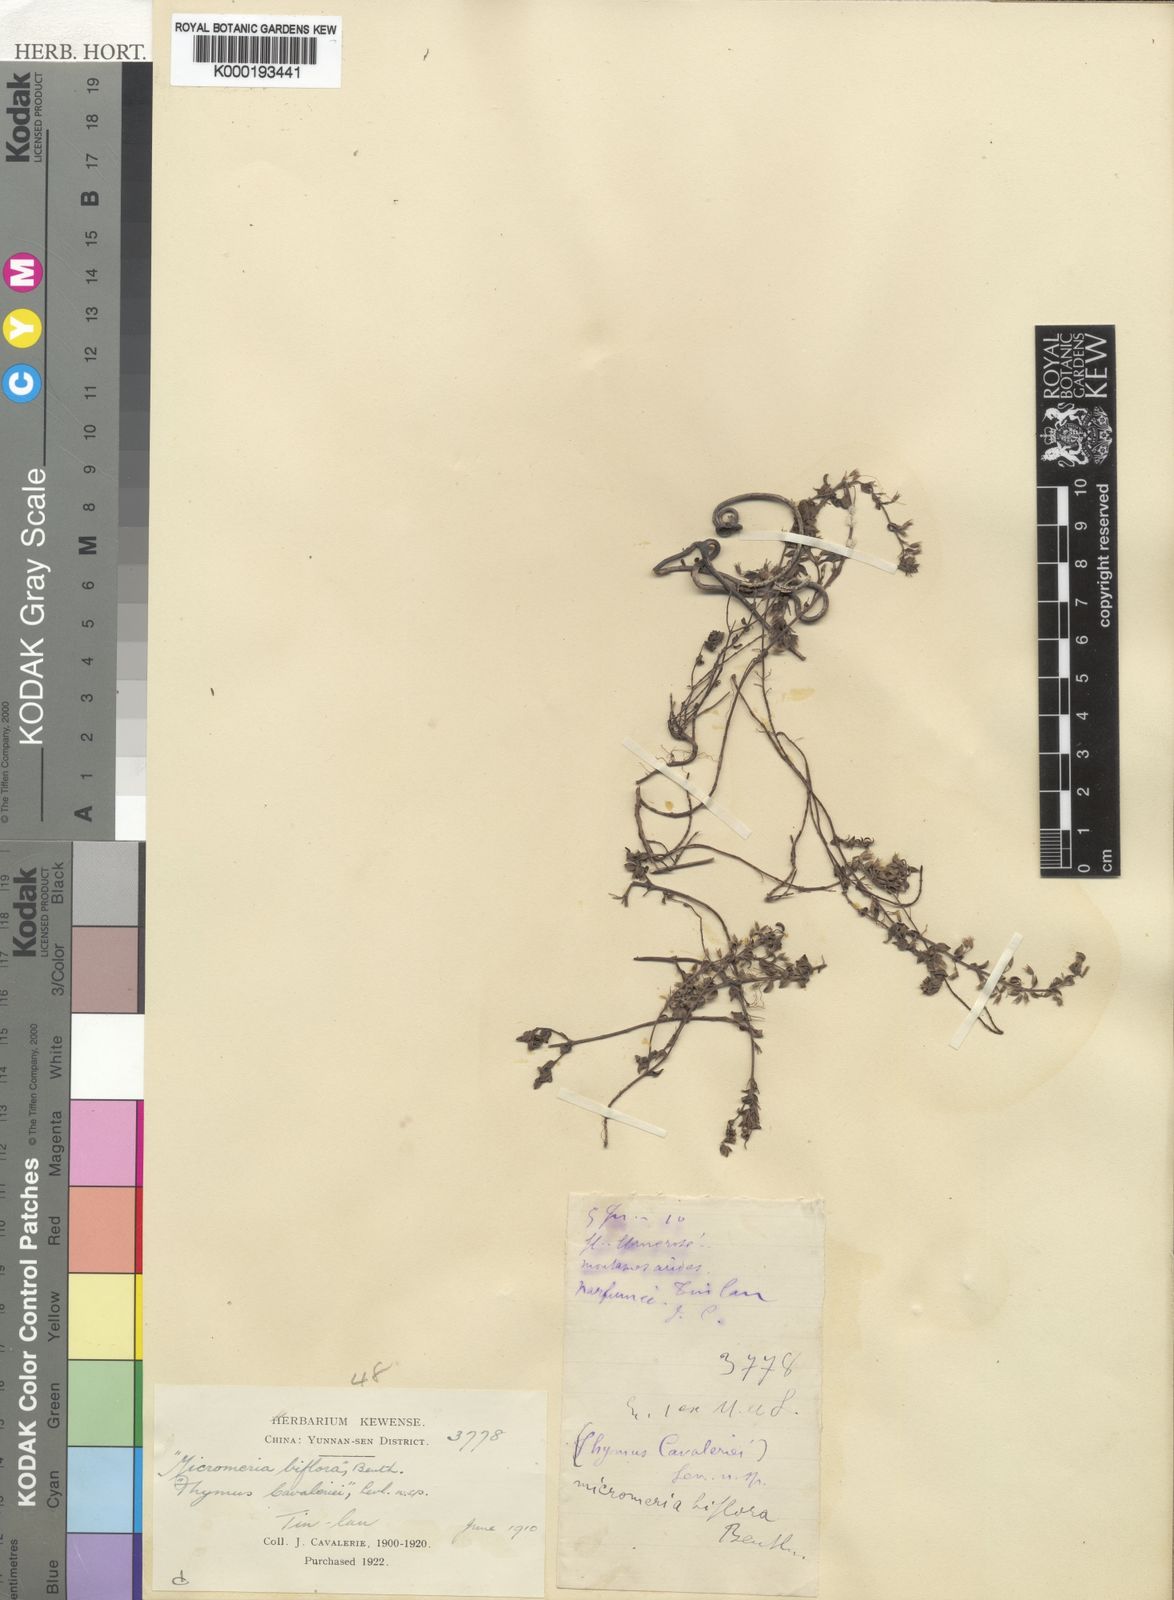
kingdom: Plantae
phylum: Tracheophyta
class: Magnoliopsida
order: Lamiales
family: Lamiaceae
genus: Micromeria
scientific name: Micromeria biflora
